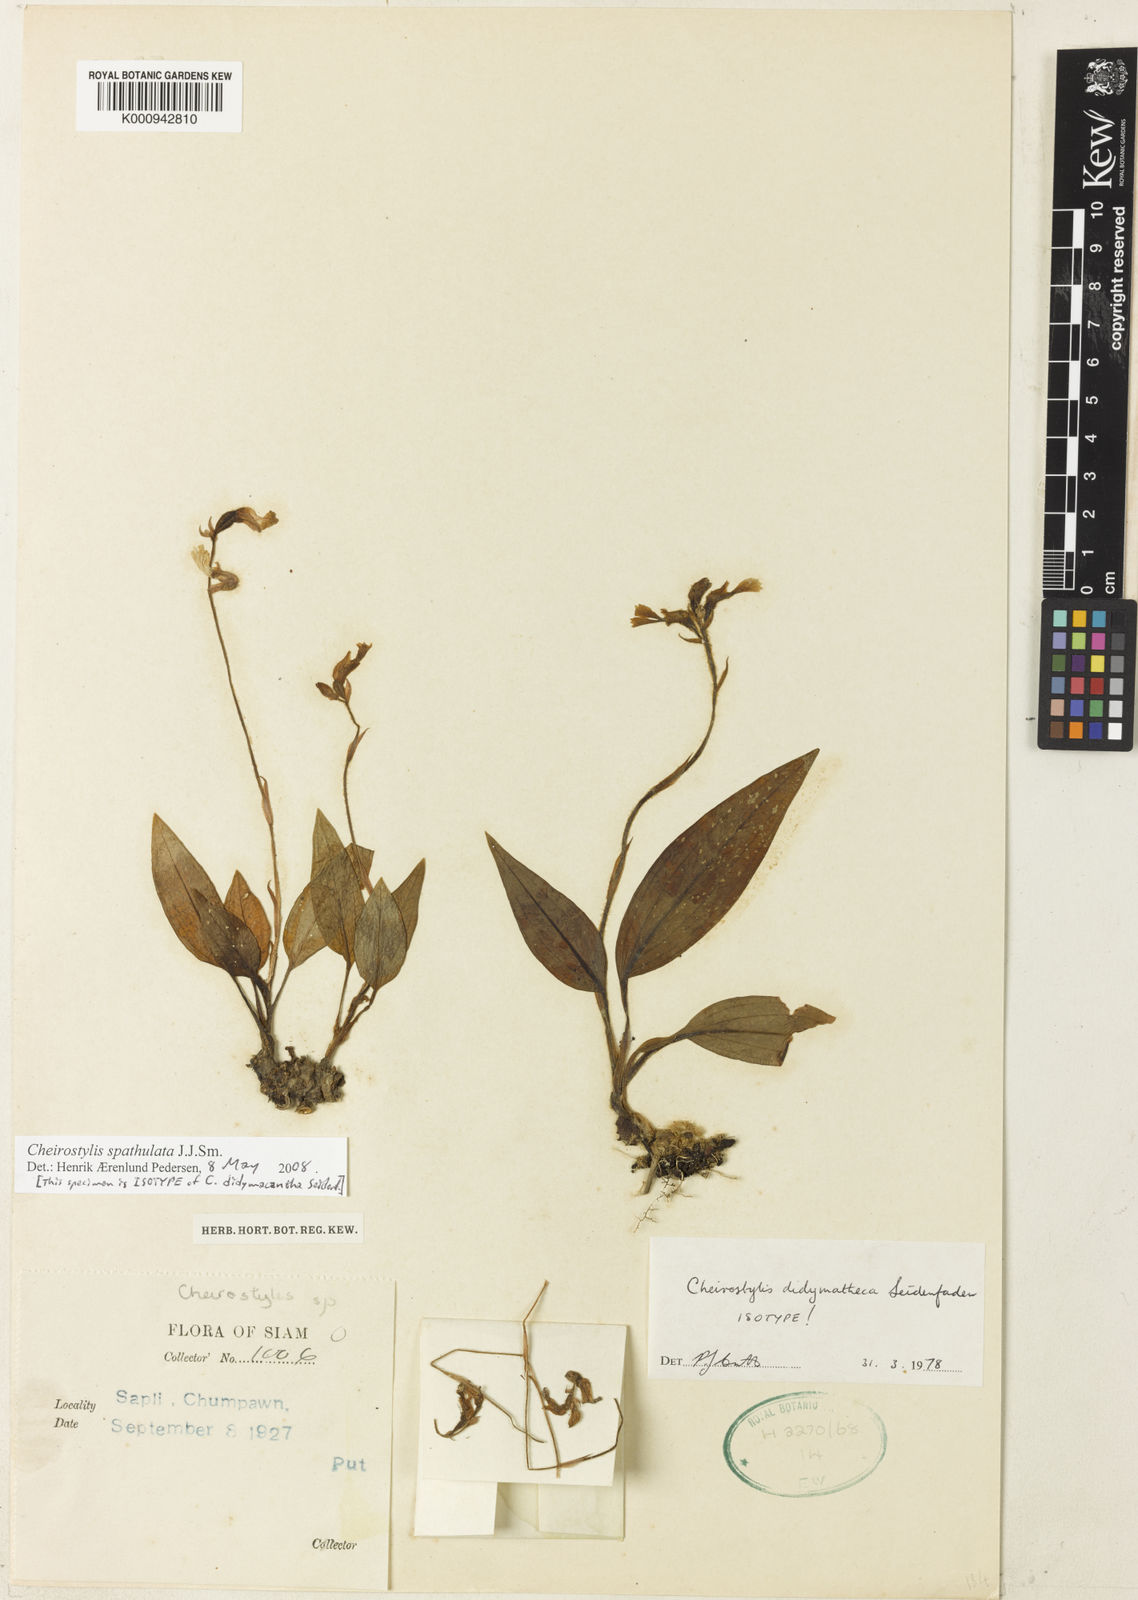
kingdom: Plantae
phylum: Tracheophyta
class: Liliopsida
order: Asparagales
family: Orchidaceae
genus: Cheirostylis
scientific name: Cheirostylis spathulata
